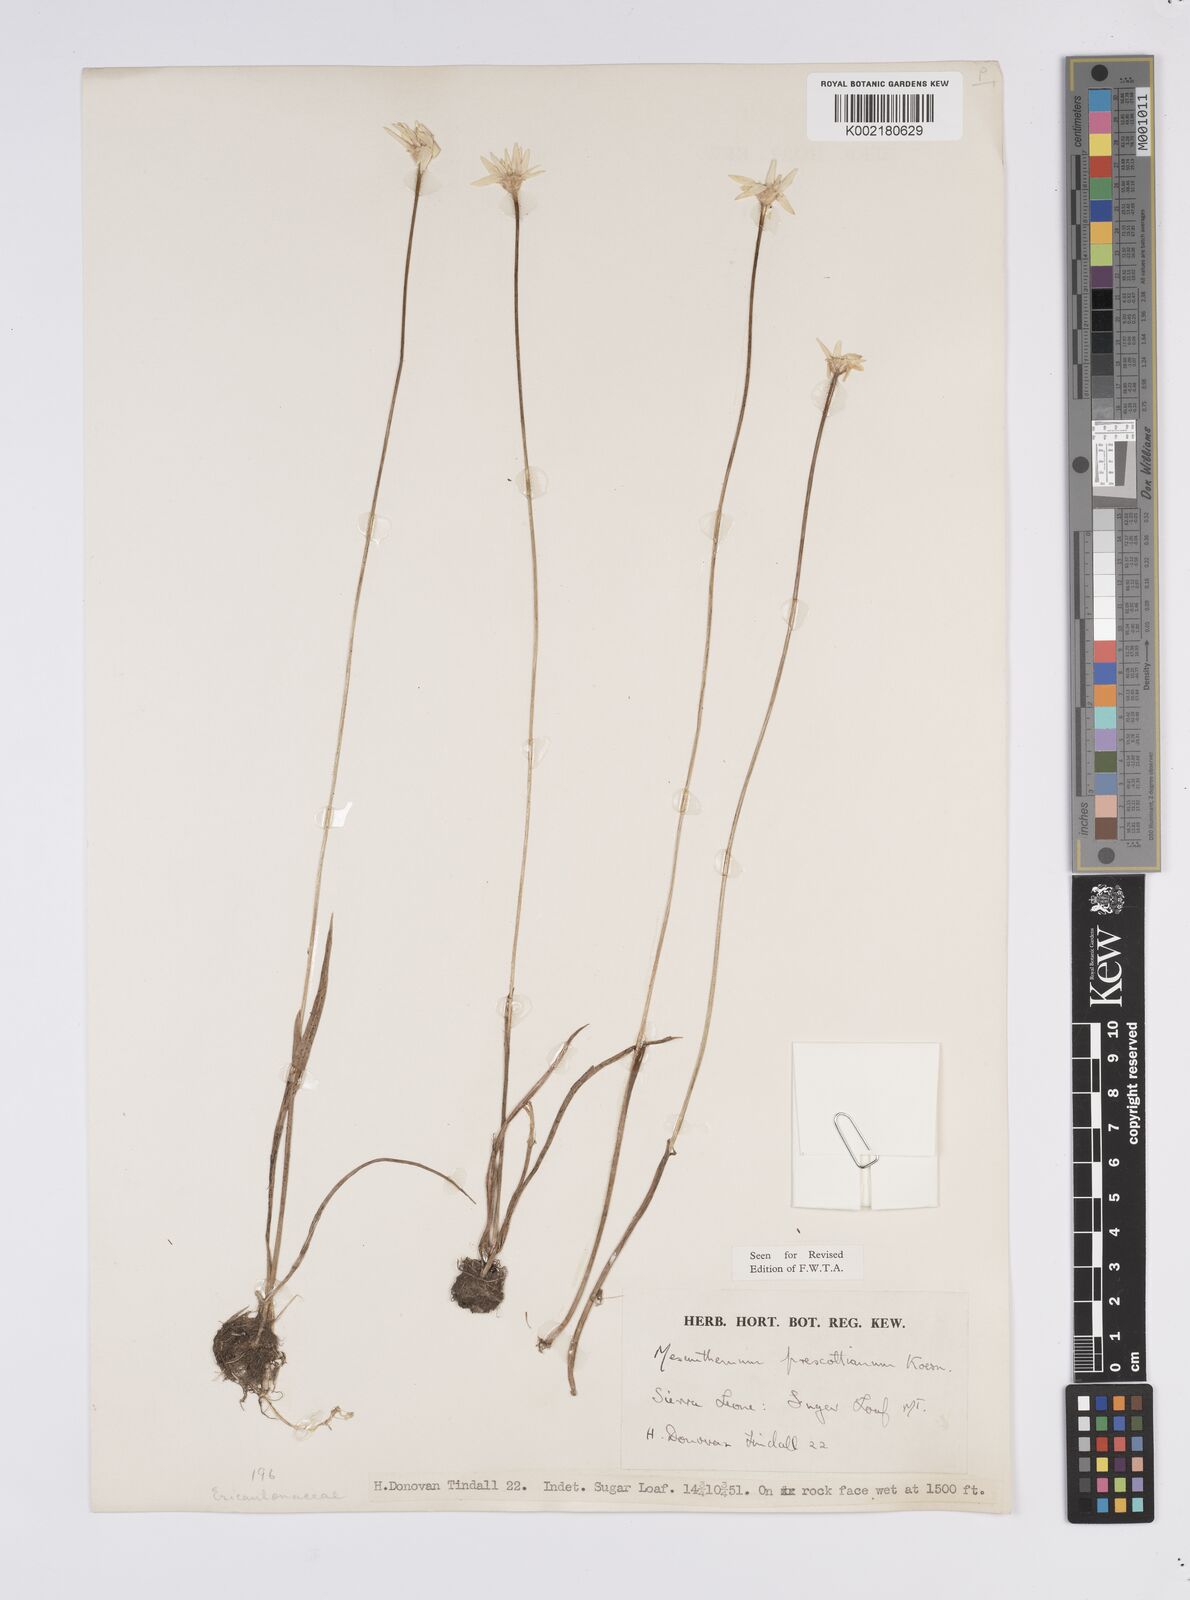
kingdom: Plantae
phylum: Tracheophyta
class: Liliopsida
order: Poales
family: Eriocaulaceae
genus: Mesanthemum
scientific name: Mesanthemum prescottianum
